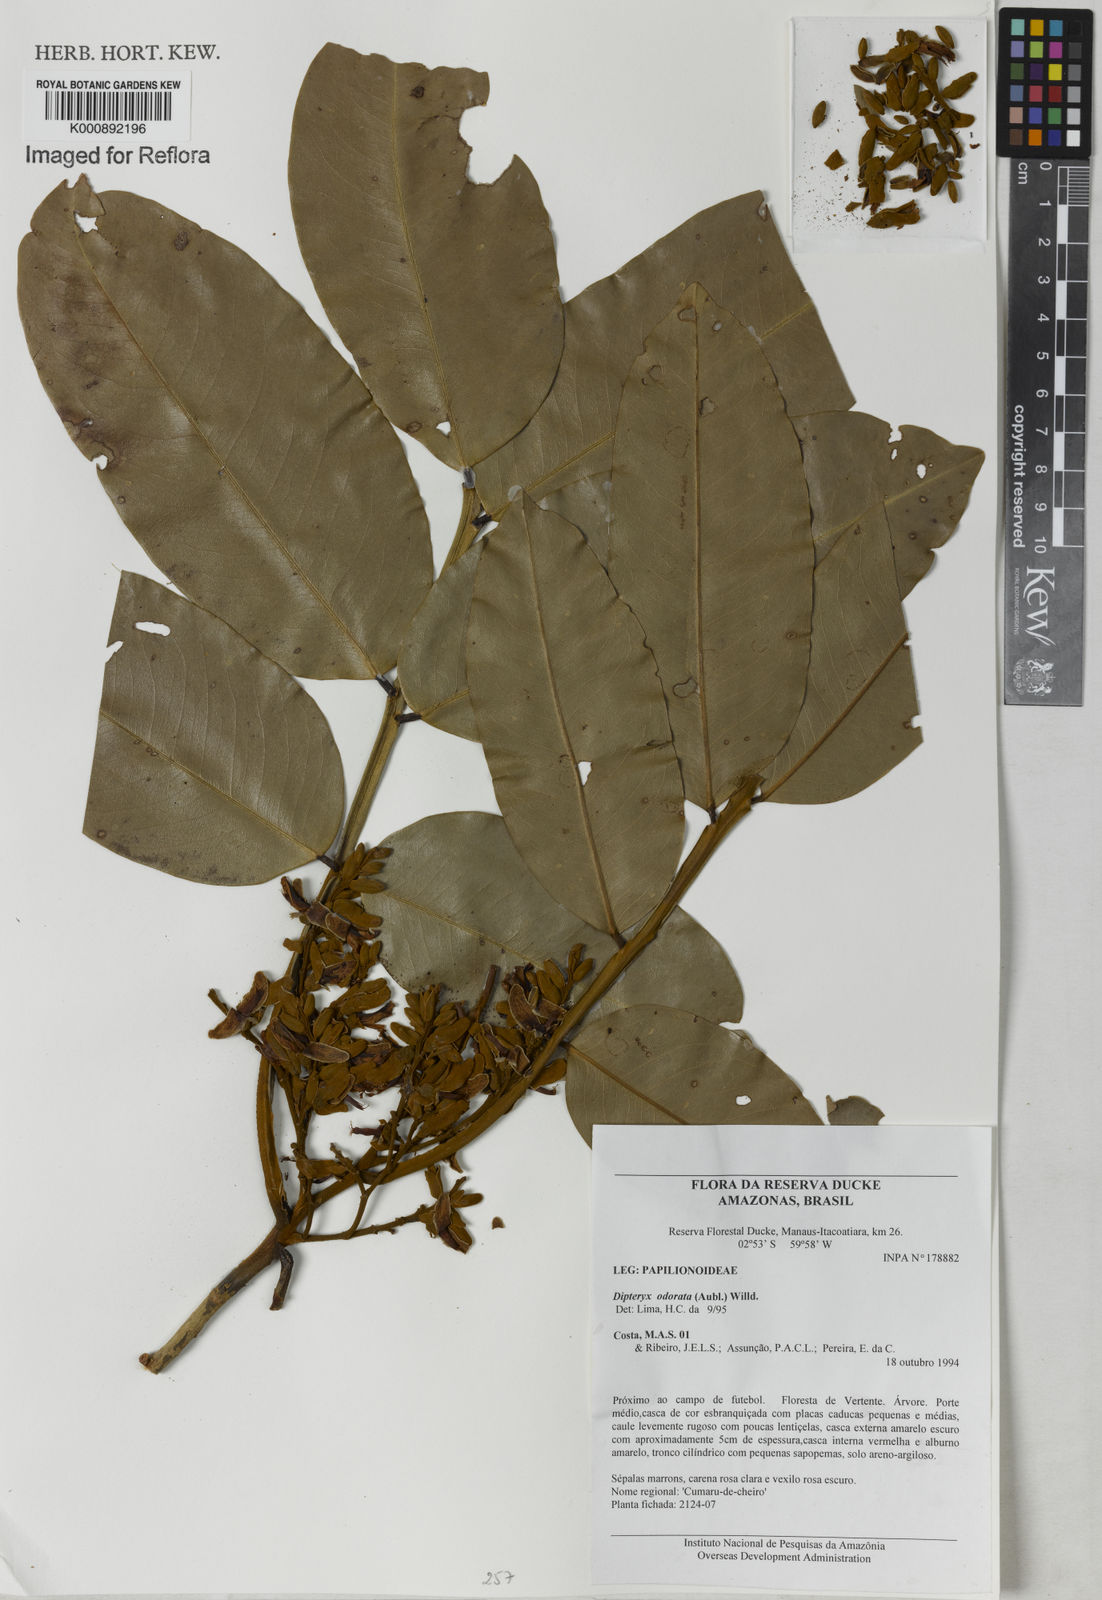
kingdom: Plantae
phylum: Tracheophyta
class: Magnoliopsida
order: Fabales
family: Fabaceae
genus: Dipteryx
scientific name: Dipteryx
